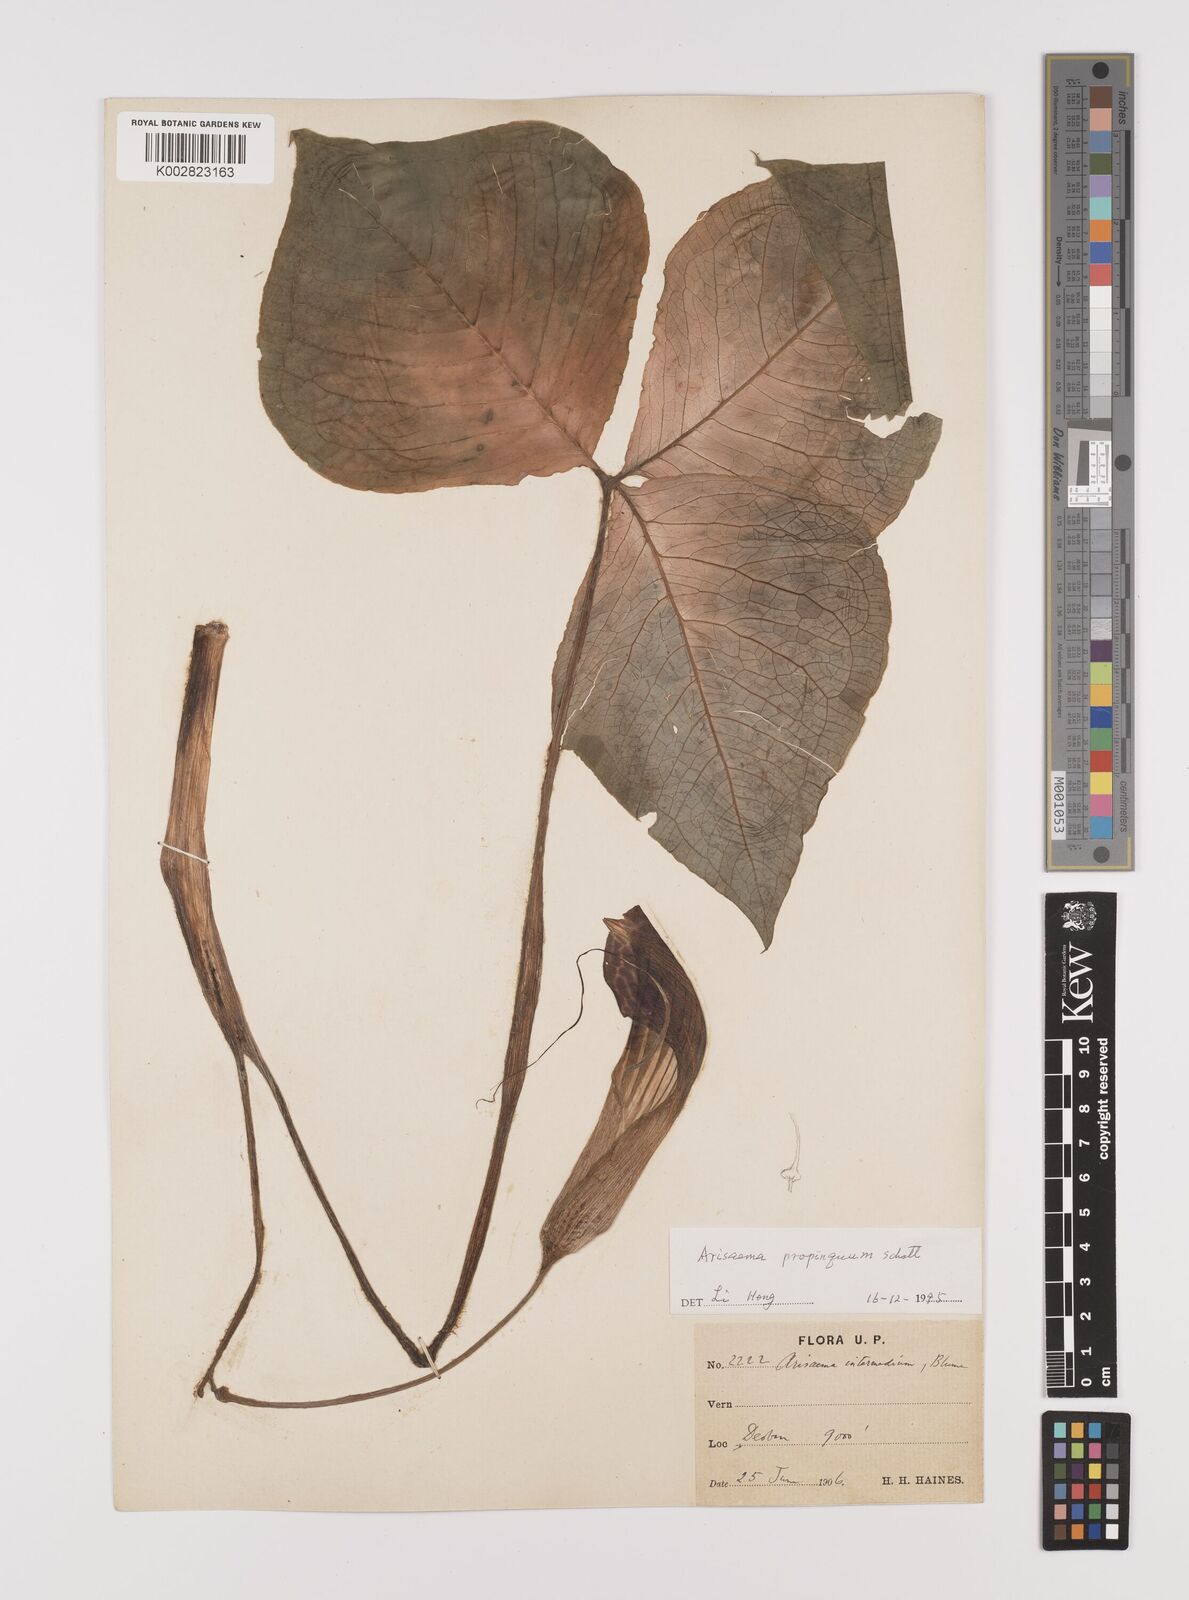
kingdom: Plantae
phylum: Tracheophyta
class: Liliopsida
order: Alismatales
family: Araceae
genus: Arisaema
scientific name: Arisaema propinquum
